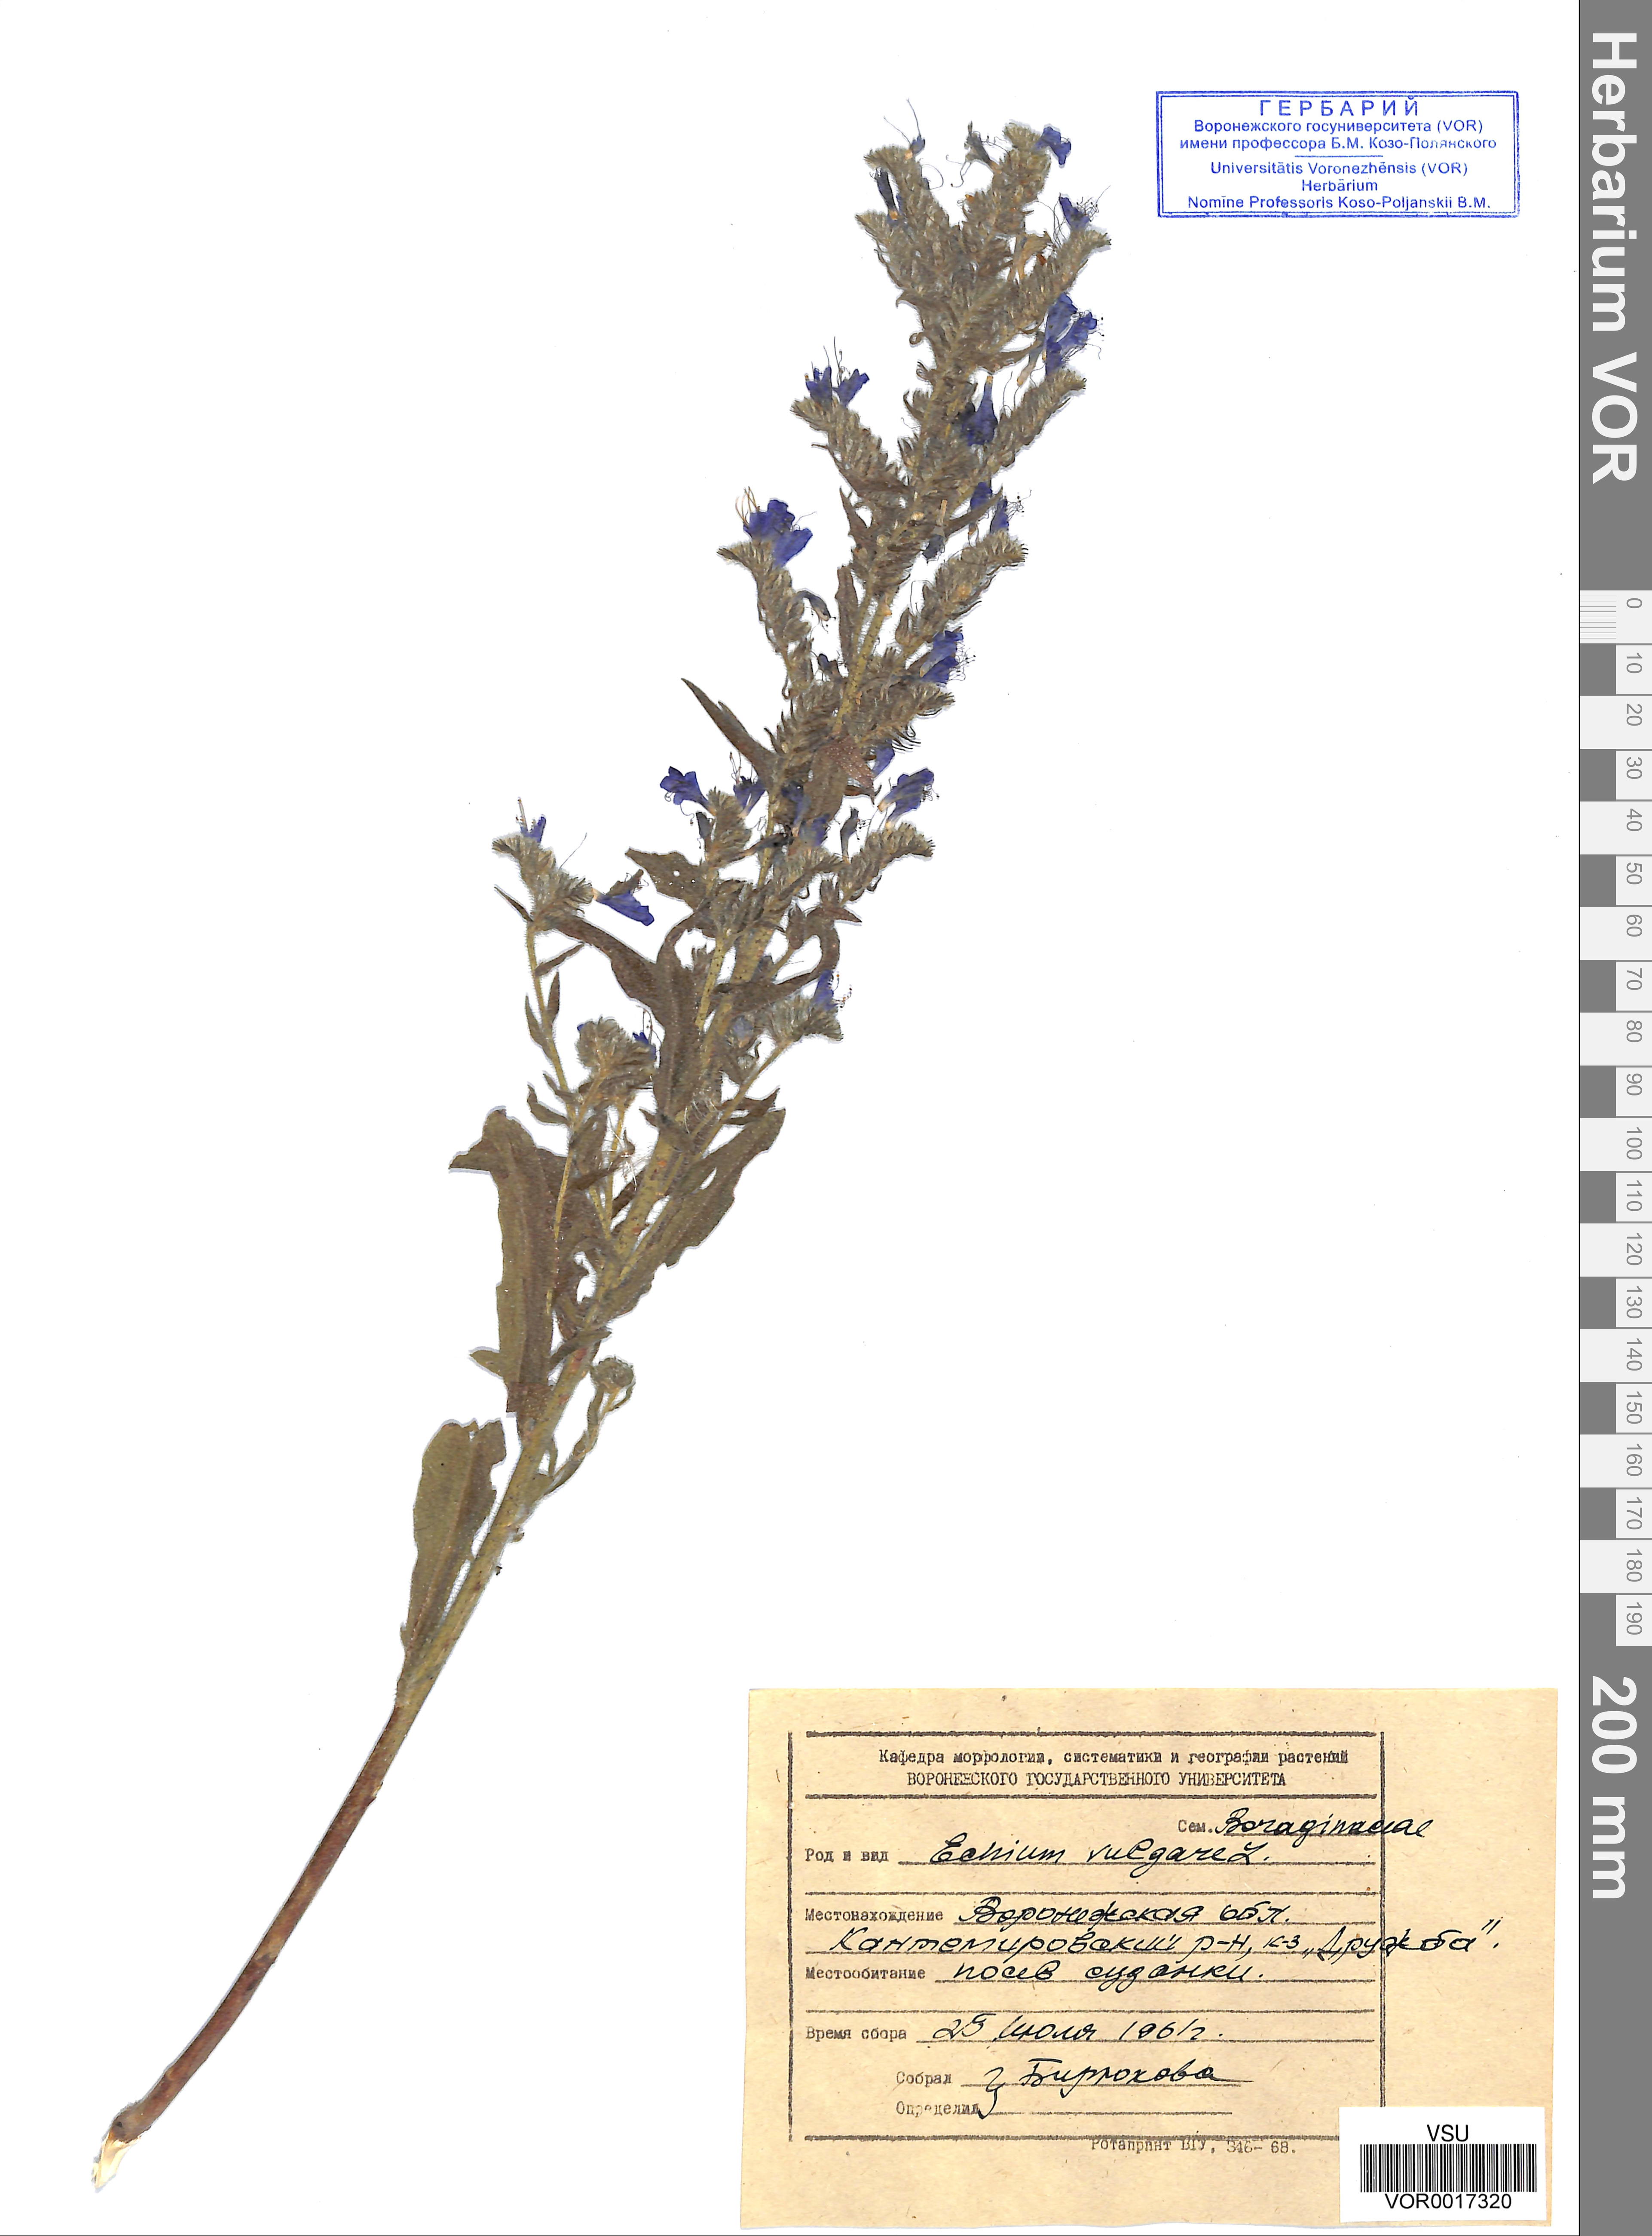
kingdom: Plantae
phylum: Tracheophyta
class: Magnoliopsida
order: Boraginales
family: Boraginaceae
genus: Echium
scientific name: Echium vulgare
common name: Common viper's bugloss
